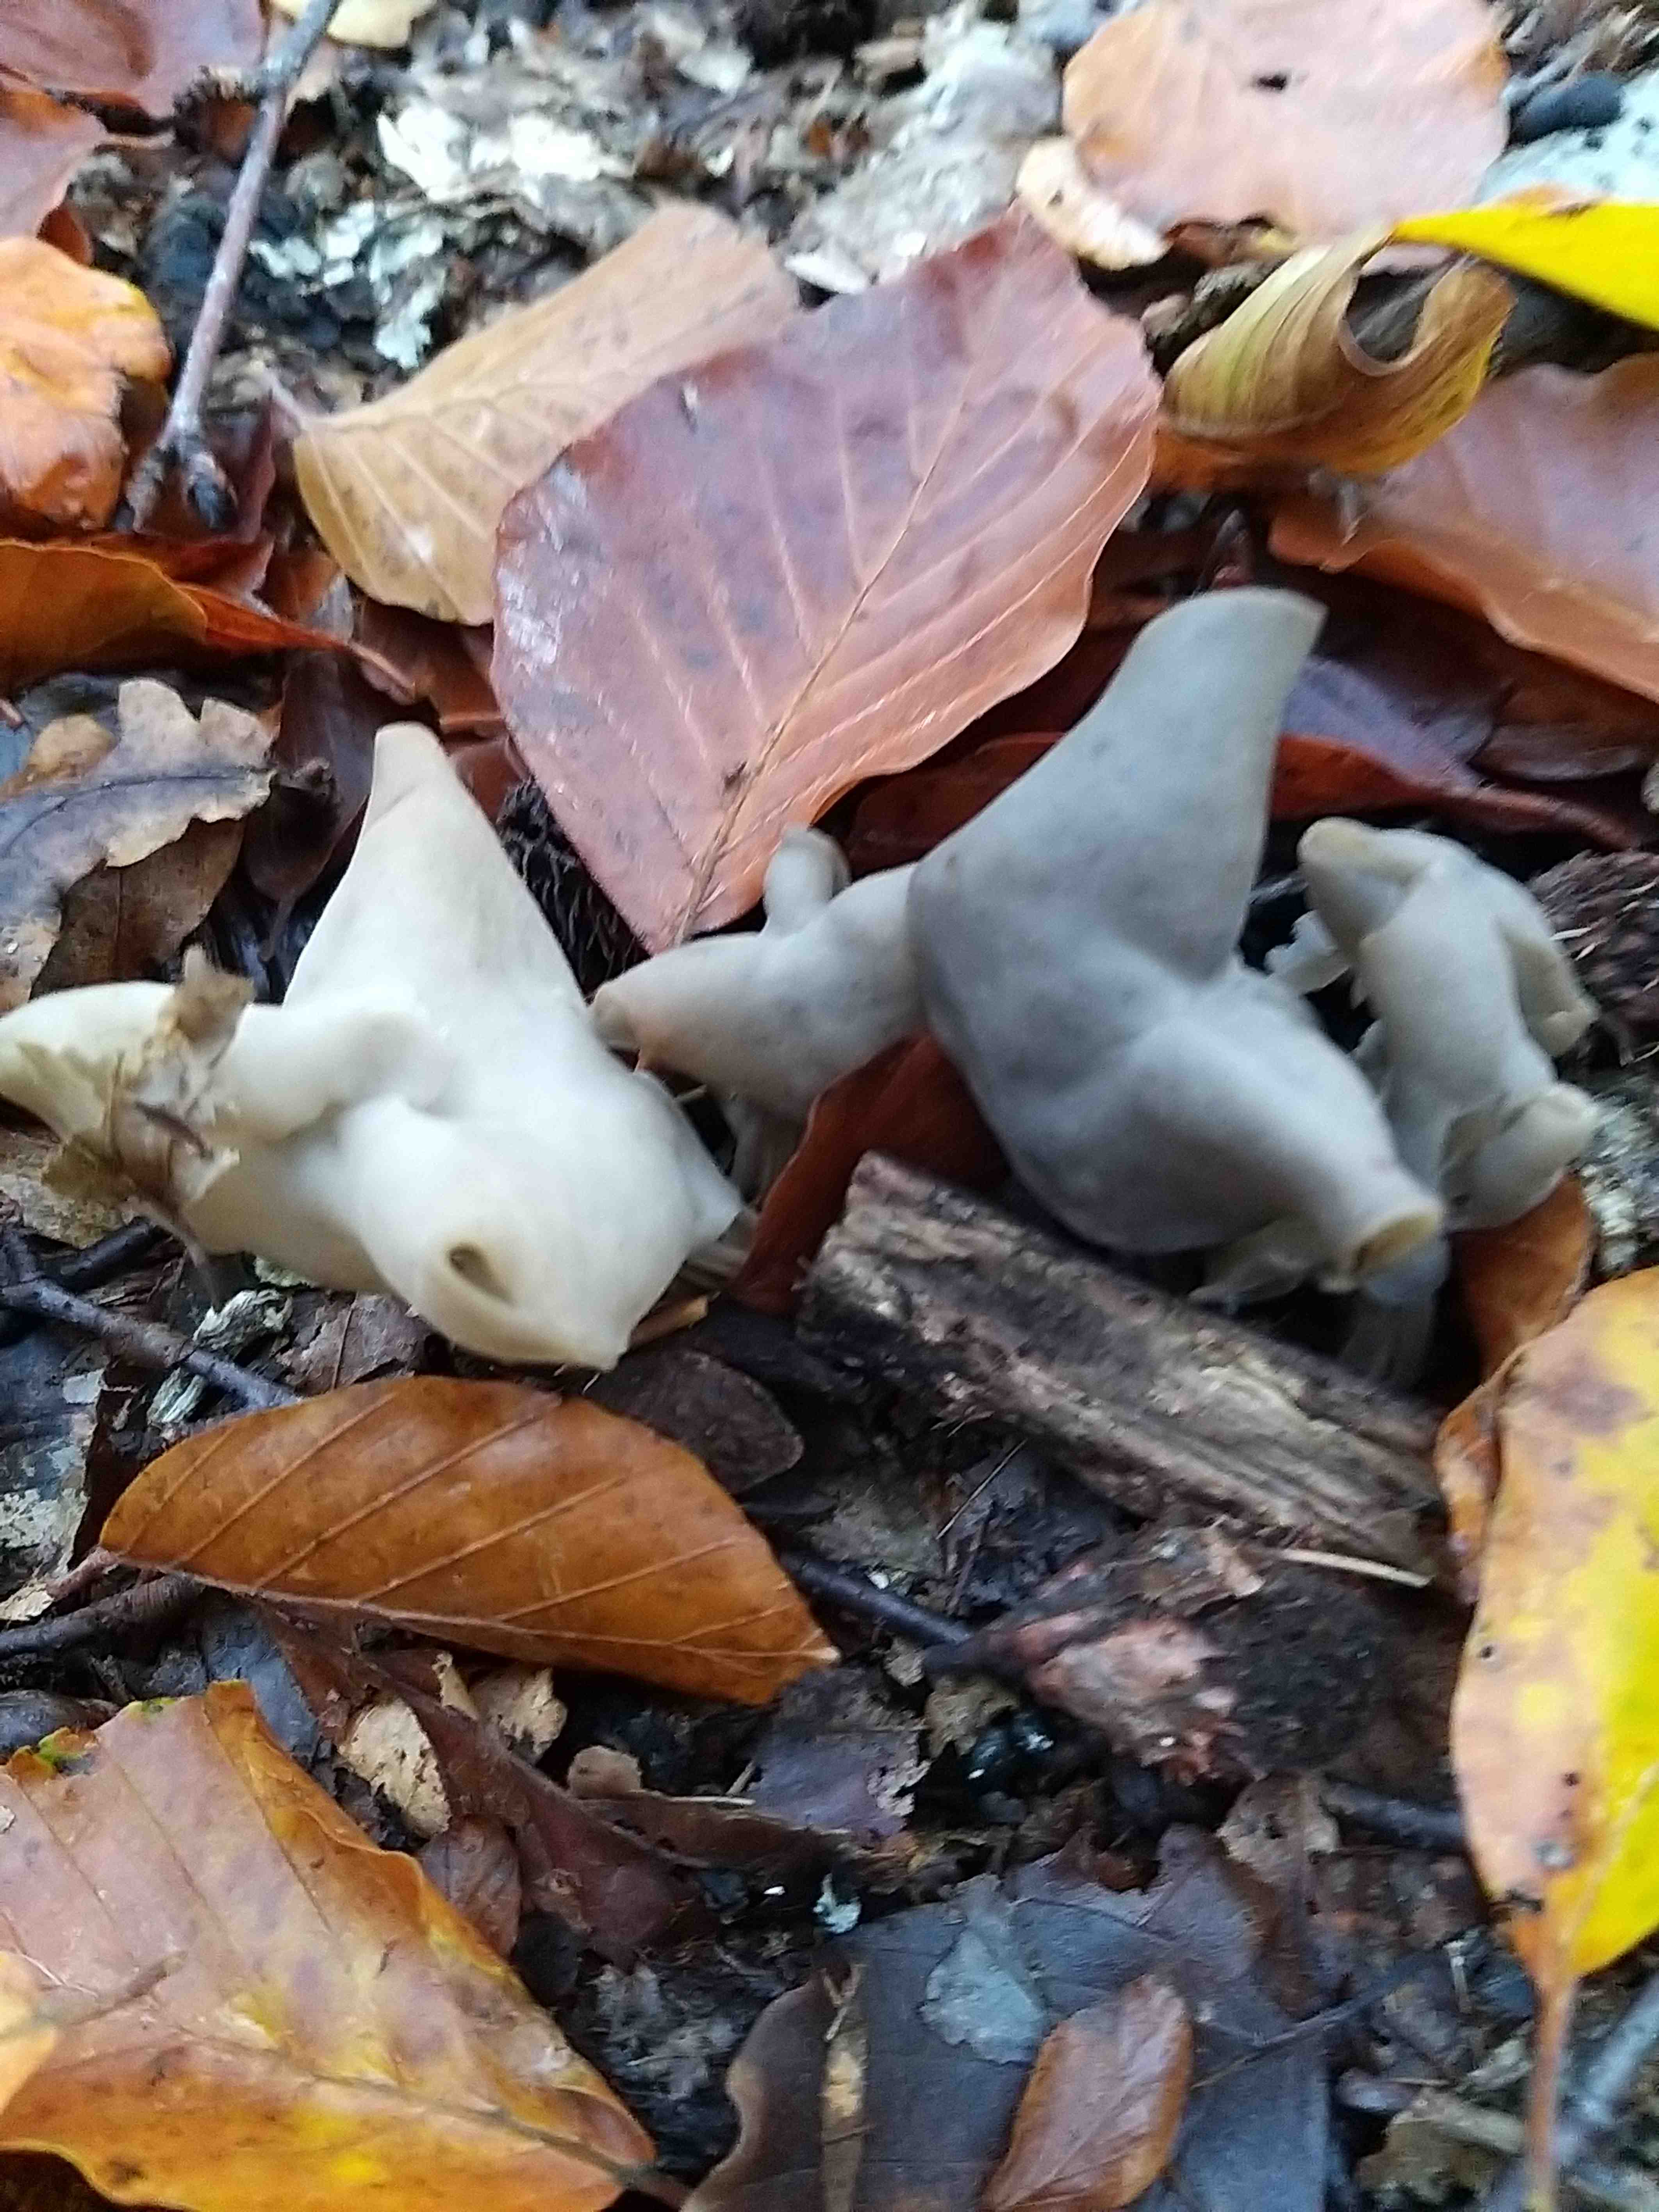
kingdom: Fungi
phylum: Ascomycota
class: Pezizomycetes
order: Pezizales
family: Helvellaceae
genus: Helvella
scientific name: Helvella lacunosa
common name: grubet foldhat
